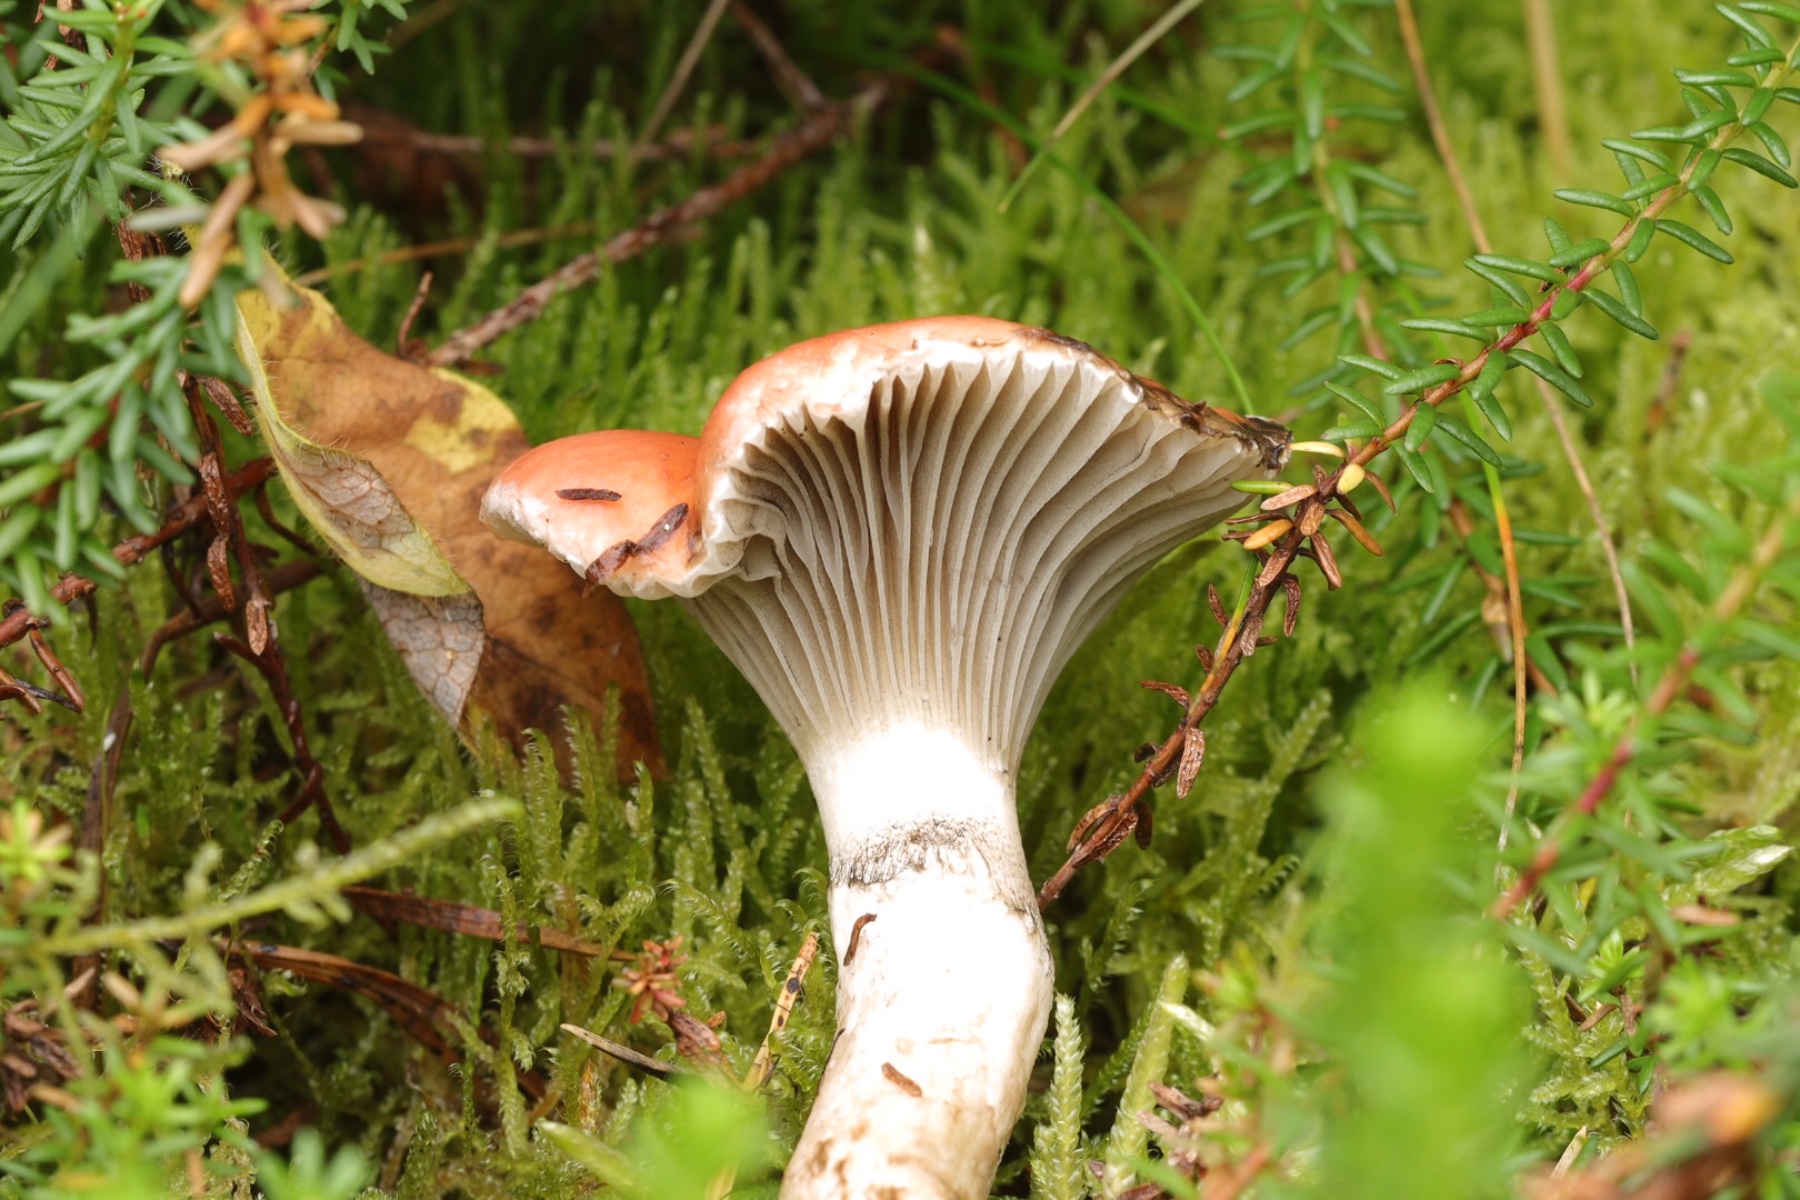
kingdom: Fungi
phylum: Basidiomycota
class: Agaricomycetes
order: Boletales
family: Gomphidiaceae
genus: Gomphidius
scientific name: Gomphidius roseus
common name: rosenrød slimslør
